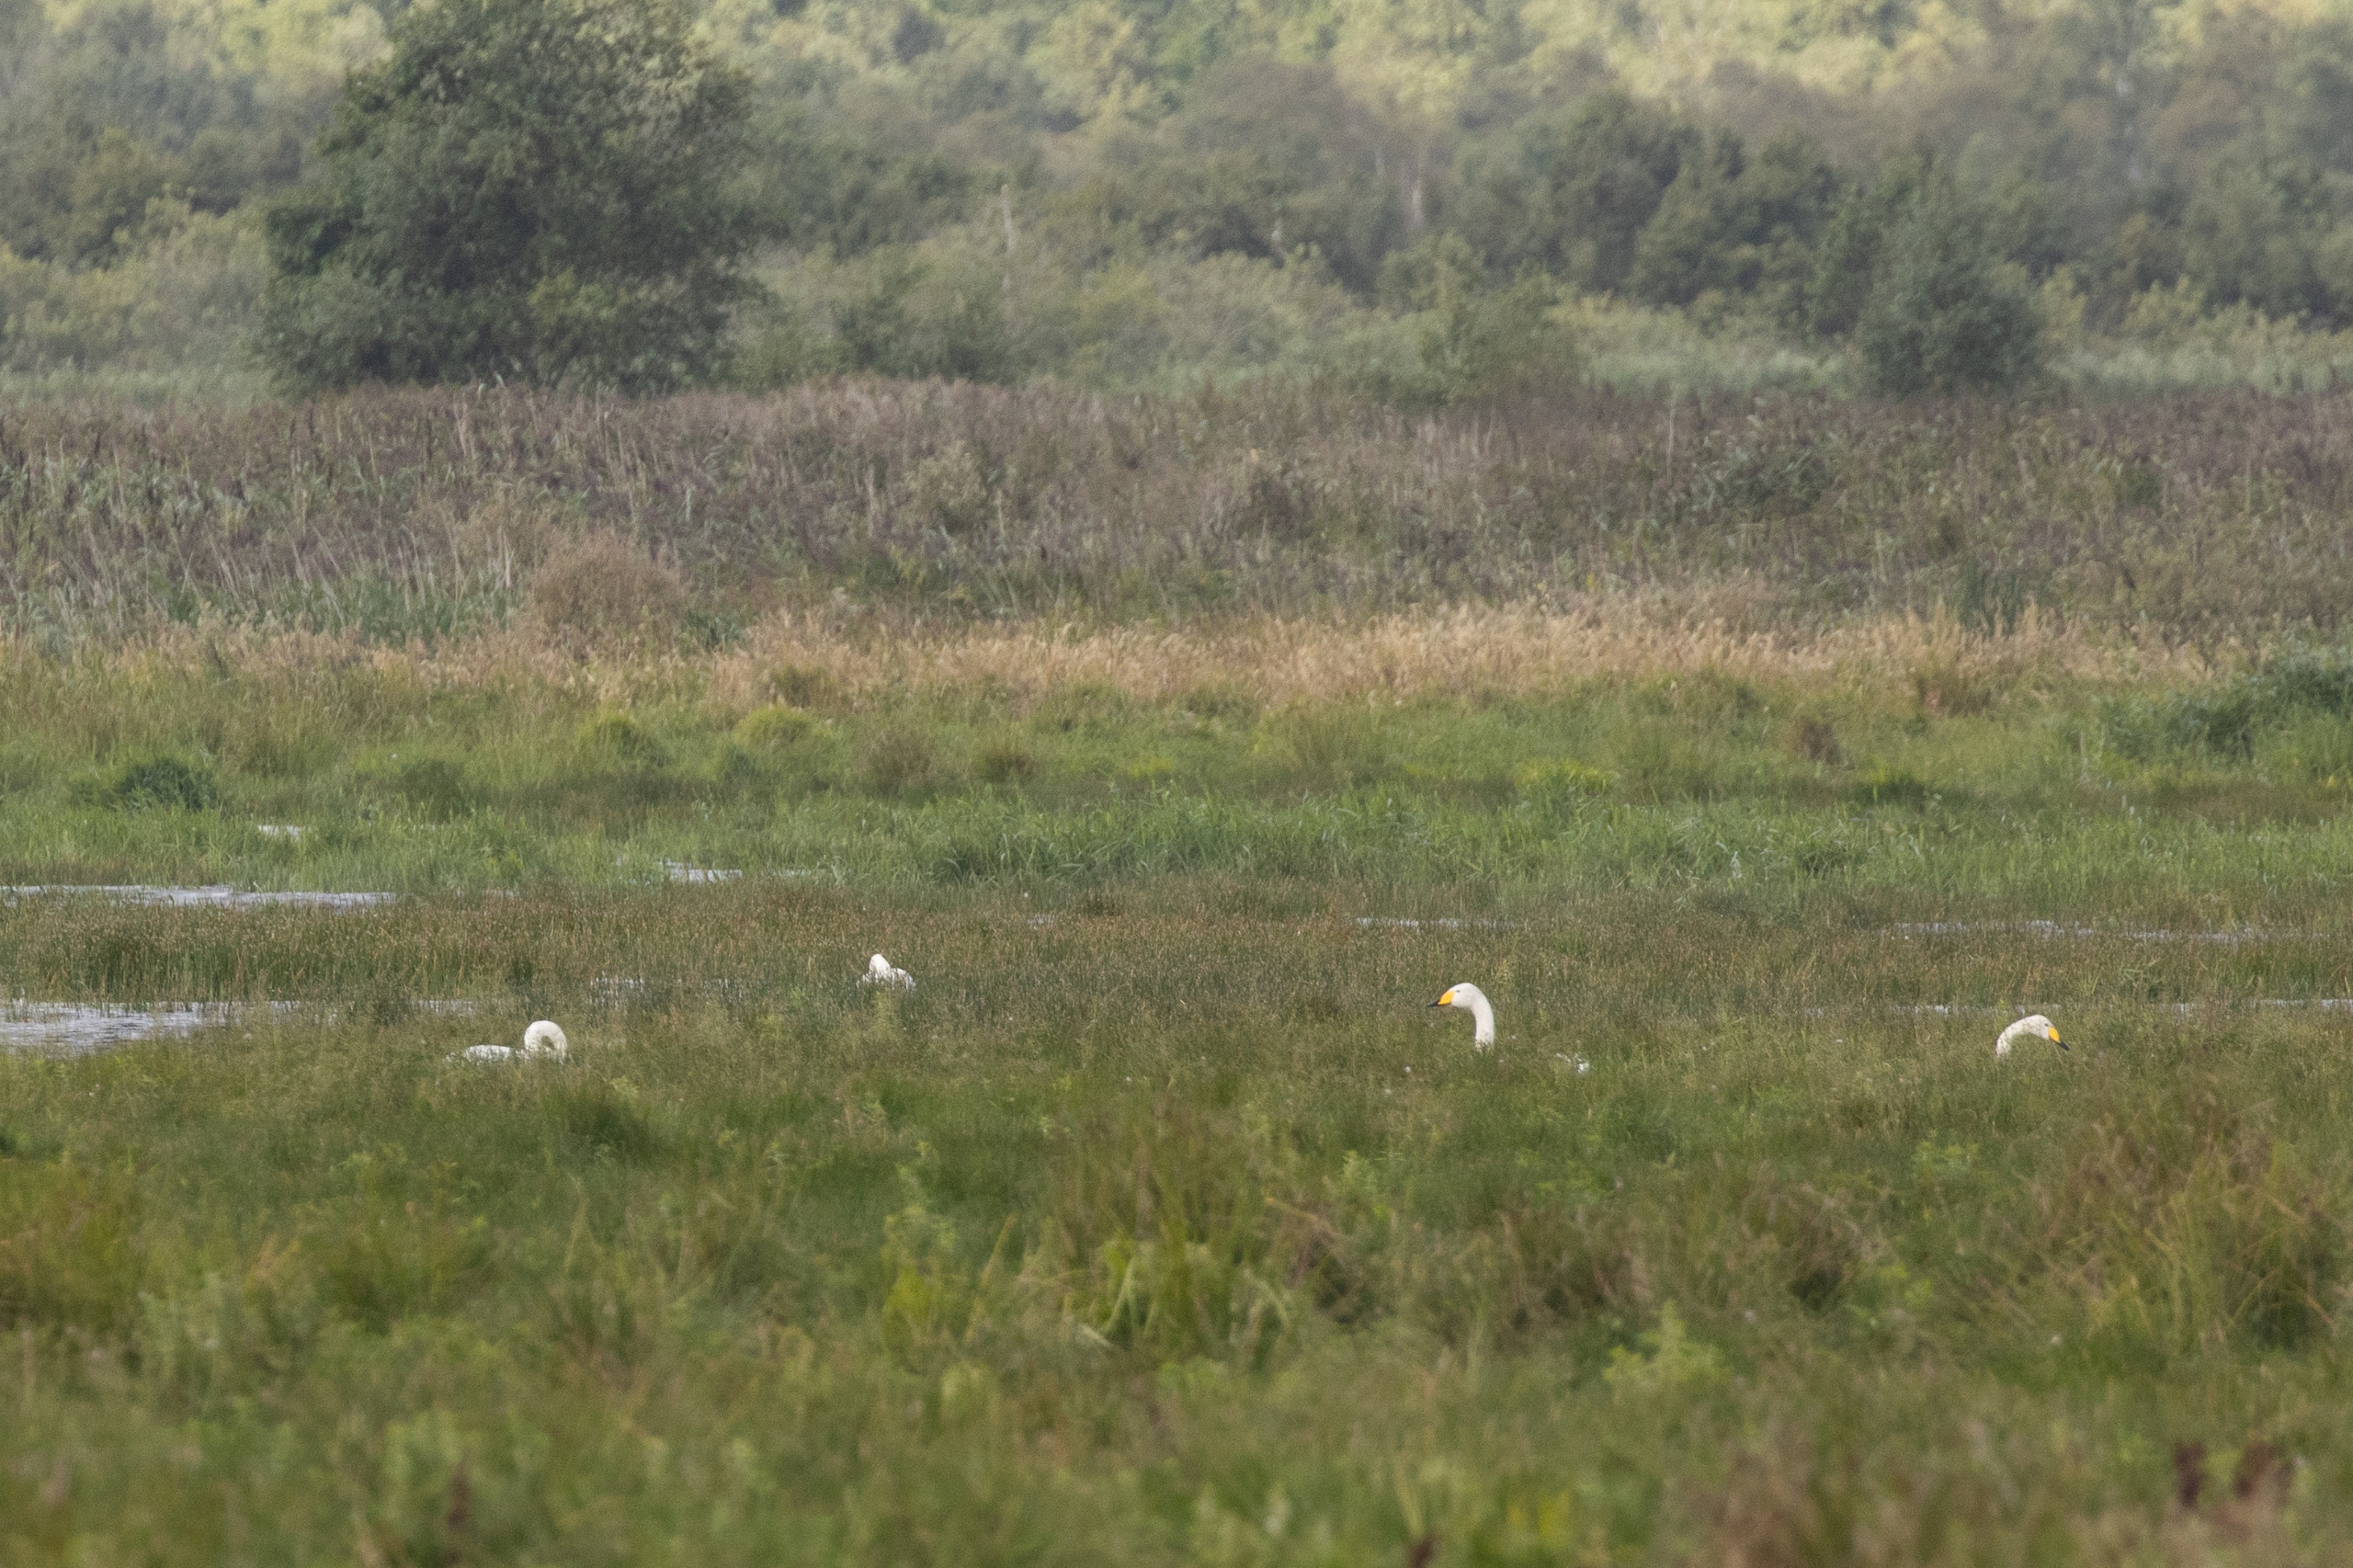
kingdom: Animalia
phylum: Chordata
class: Aves
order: Anseriformes
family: Anatidae
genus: Cygnus
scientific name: Cygnus cygnus
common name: Sangsvane
